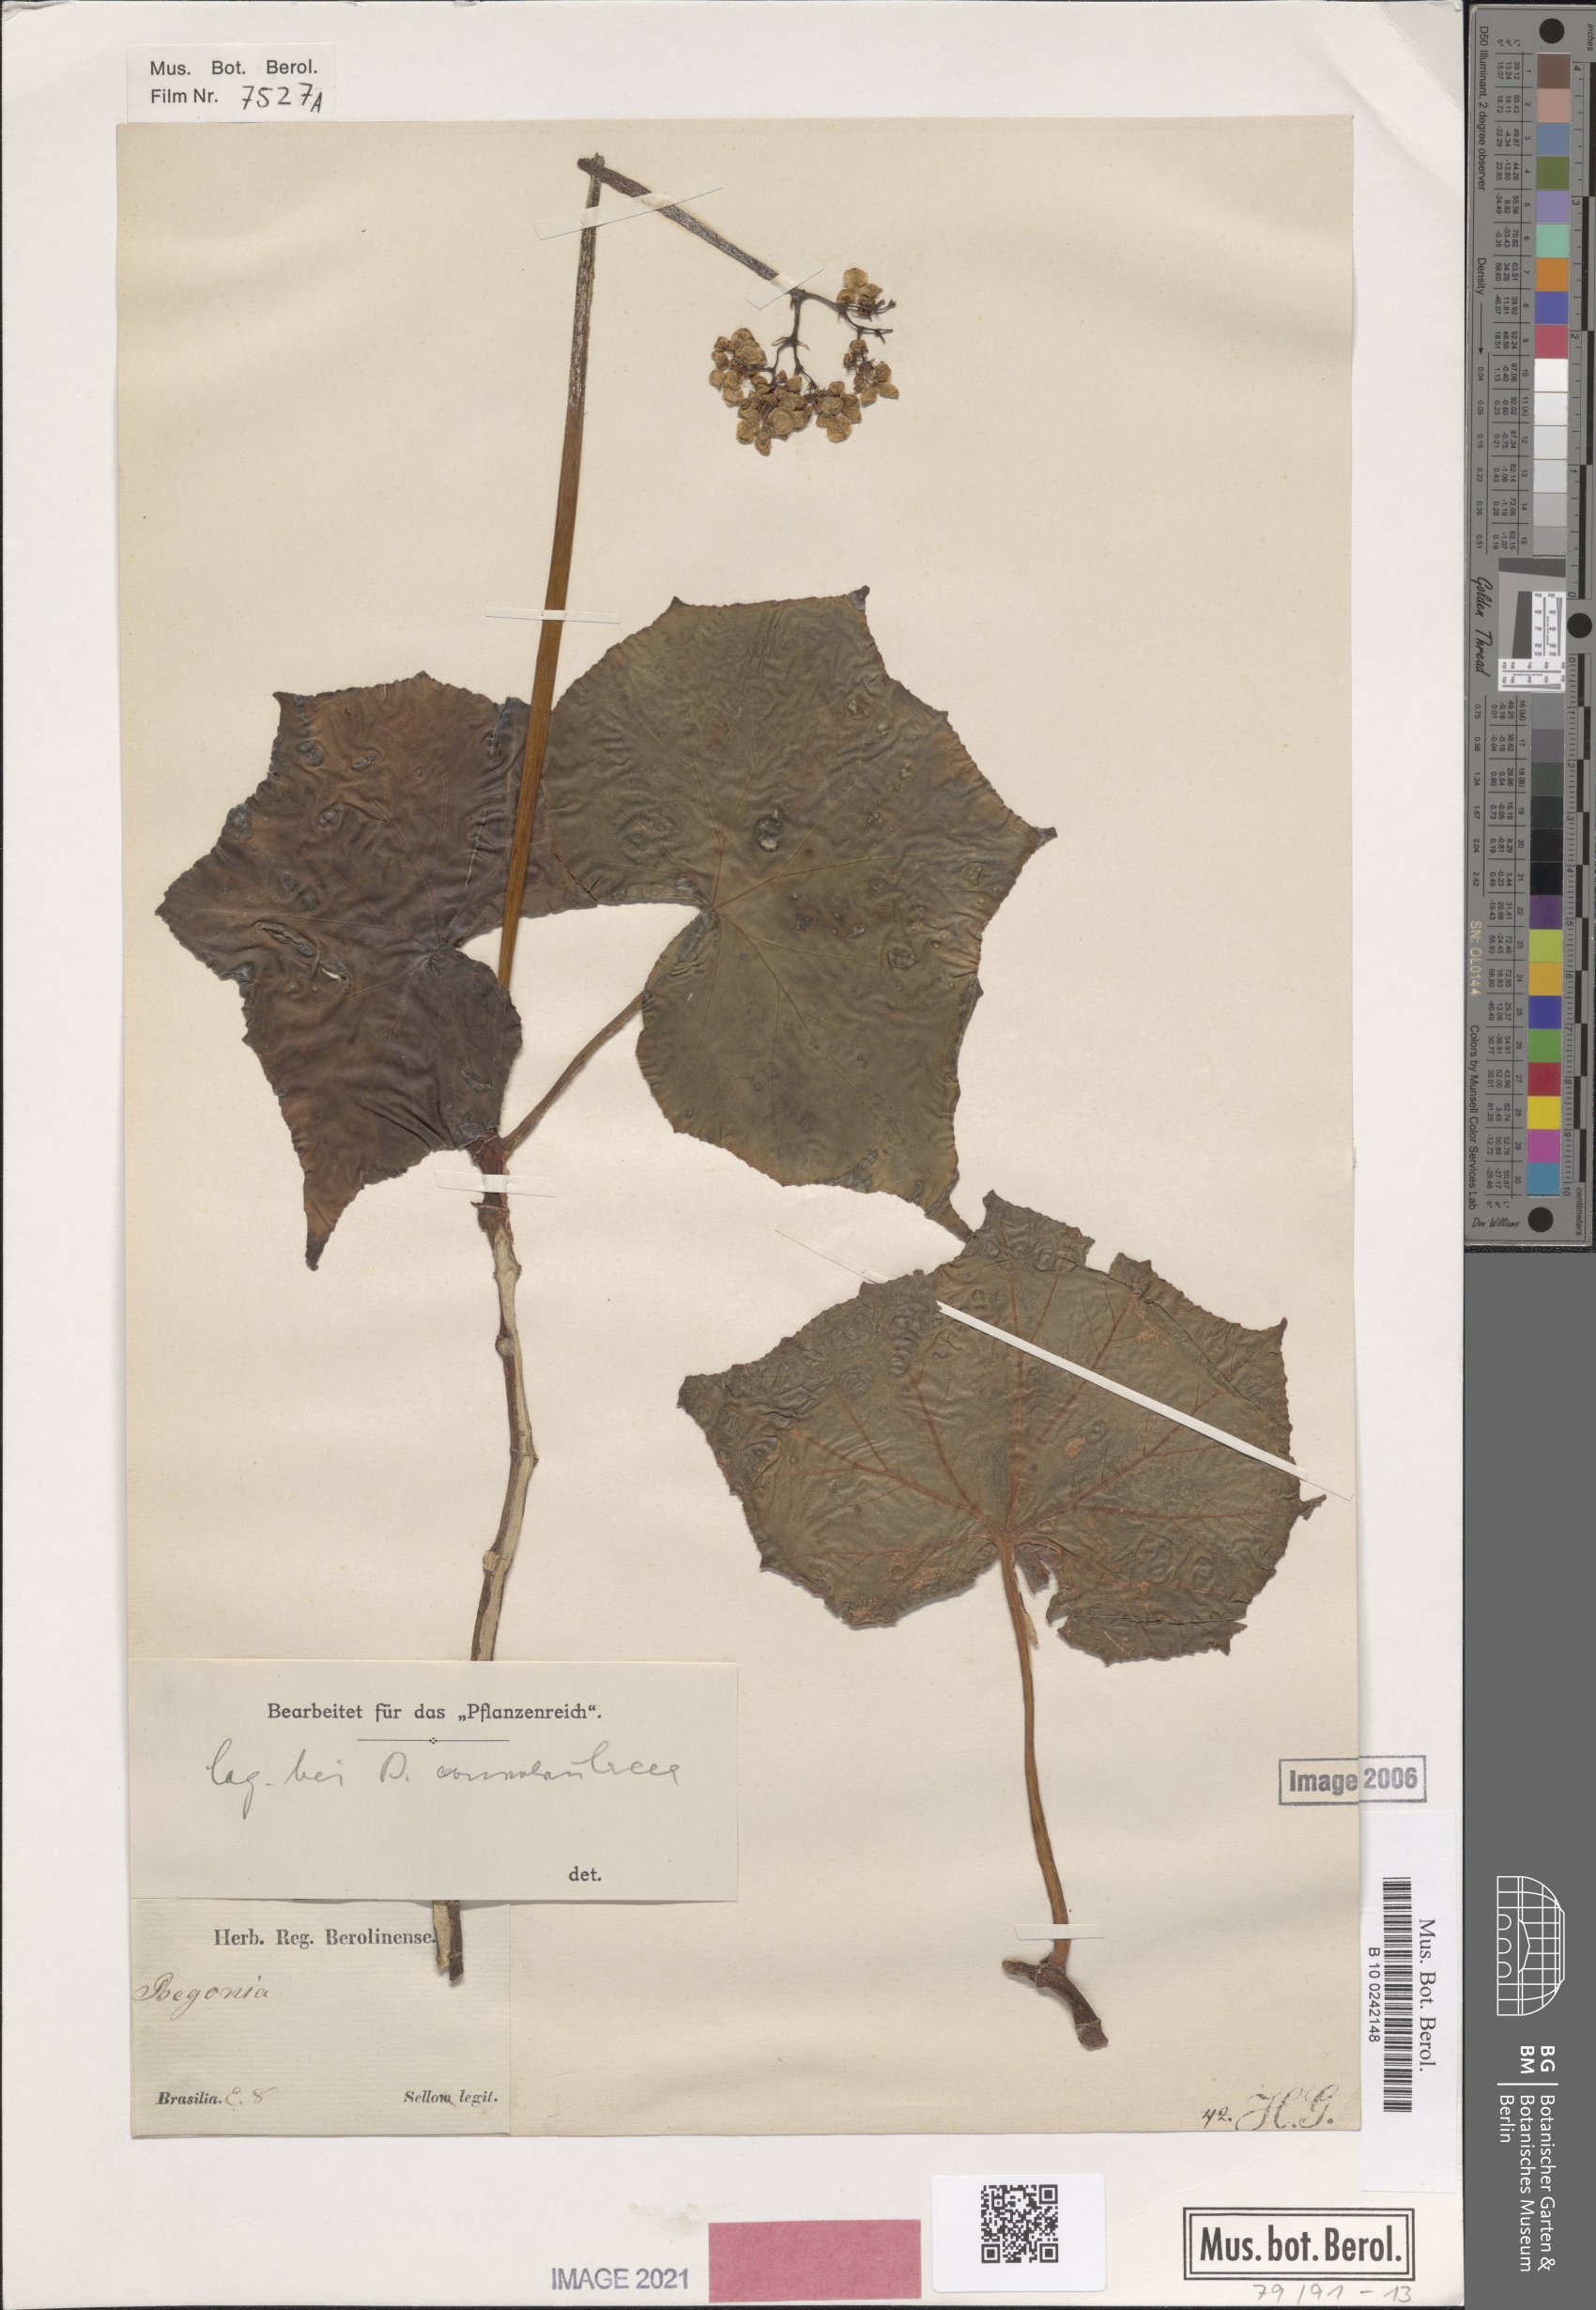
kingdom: Plantae
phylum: Tracheophyta
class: Magnoliopsida
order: Cucurbitales
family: Begoniaceae
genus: Begonia
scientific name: Begonia convolvulacea
